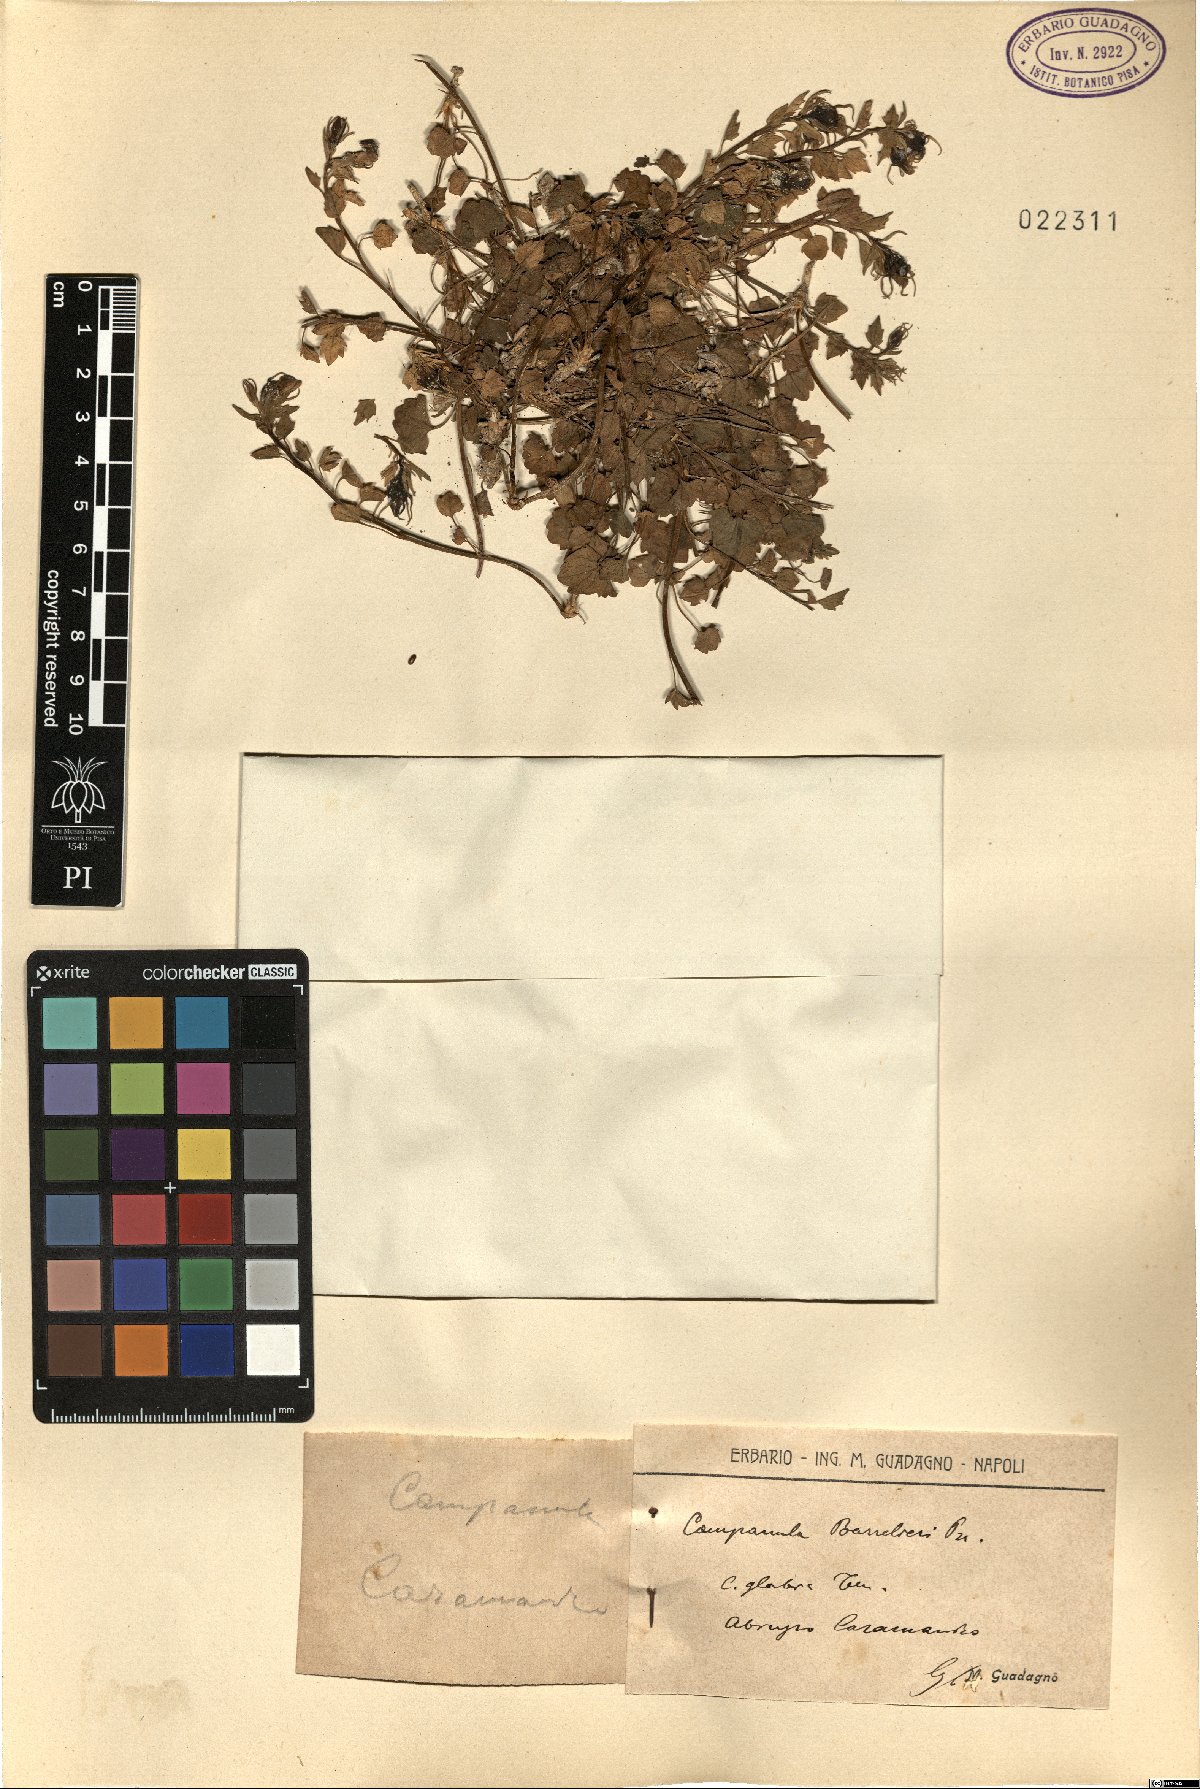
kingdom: Plantae
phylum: Tracheophyta
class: Magnoliopsida
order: Asterales
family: Campanulaceae
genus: Campanula
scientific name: Campanula fragilis
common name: Italian bellflower
